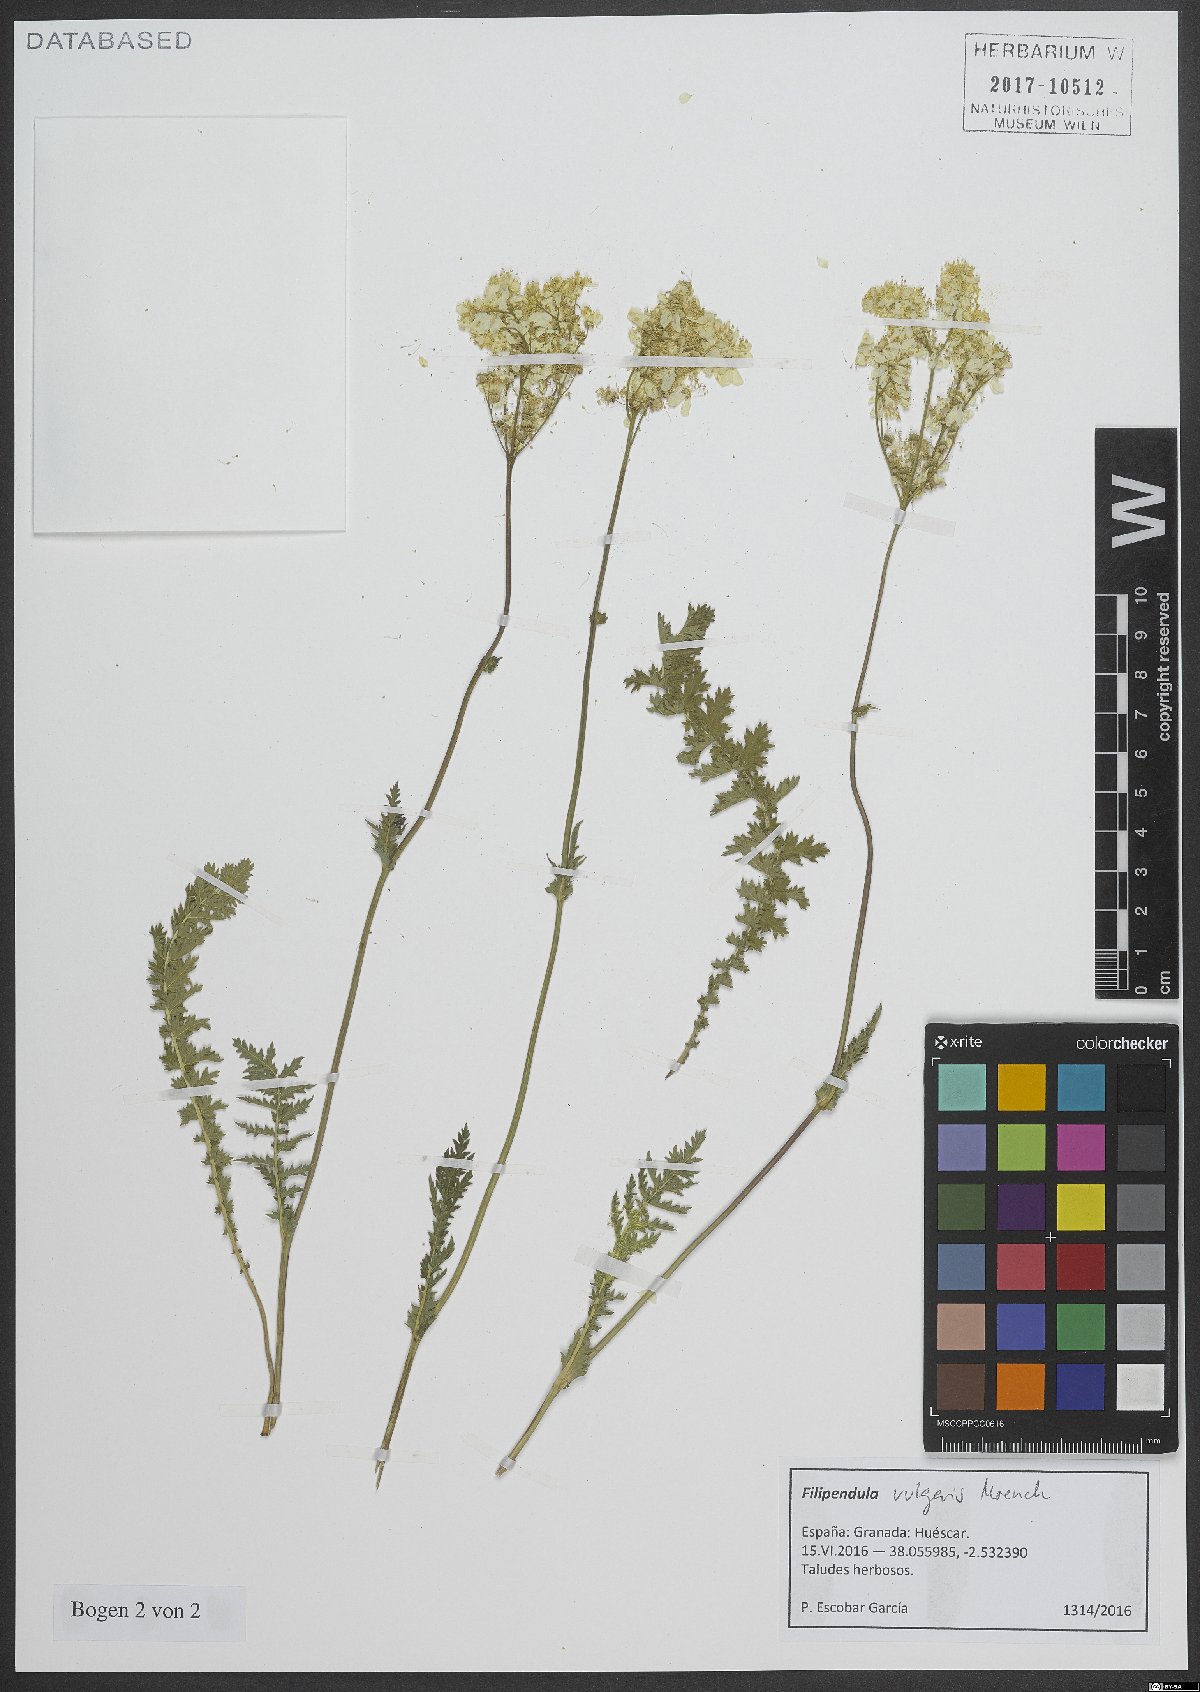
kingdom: Plantae
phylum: Tracheophyta
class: Magnoliopsida
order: Rosales
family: Rosaceae
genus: Filipendula
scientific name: Filipendula vulgaris
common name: Dropwort
